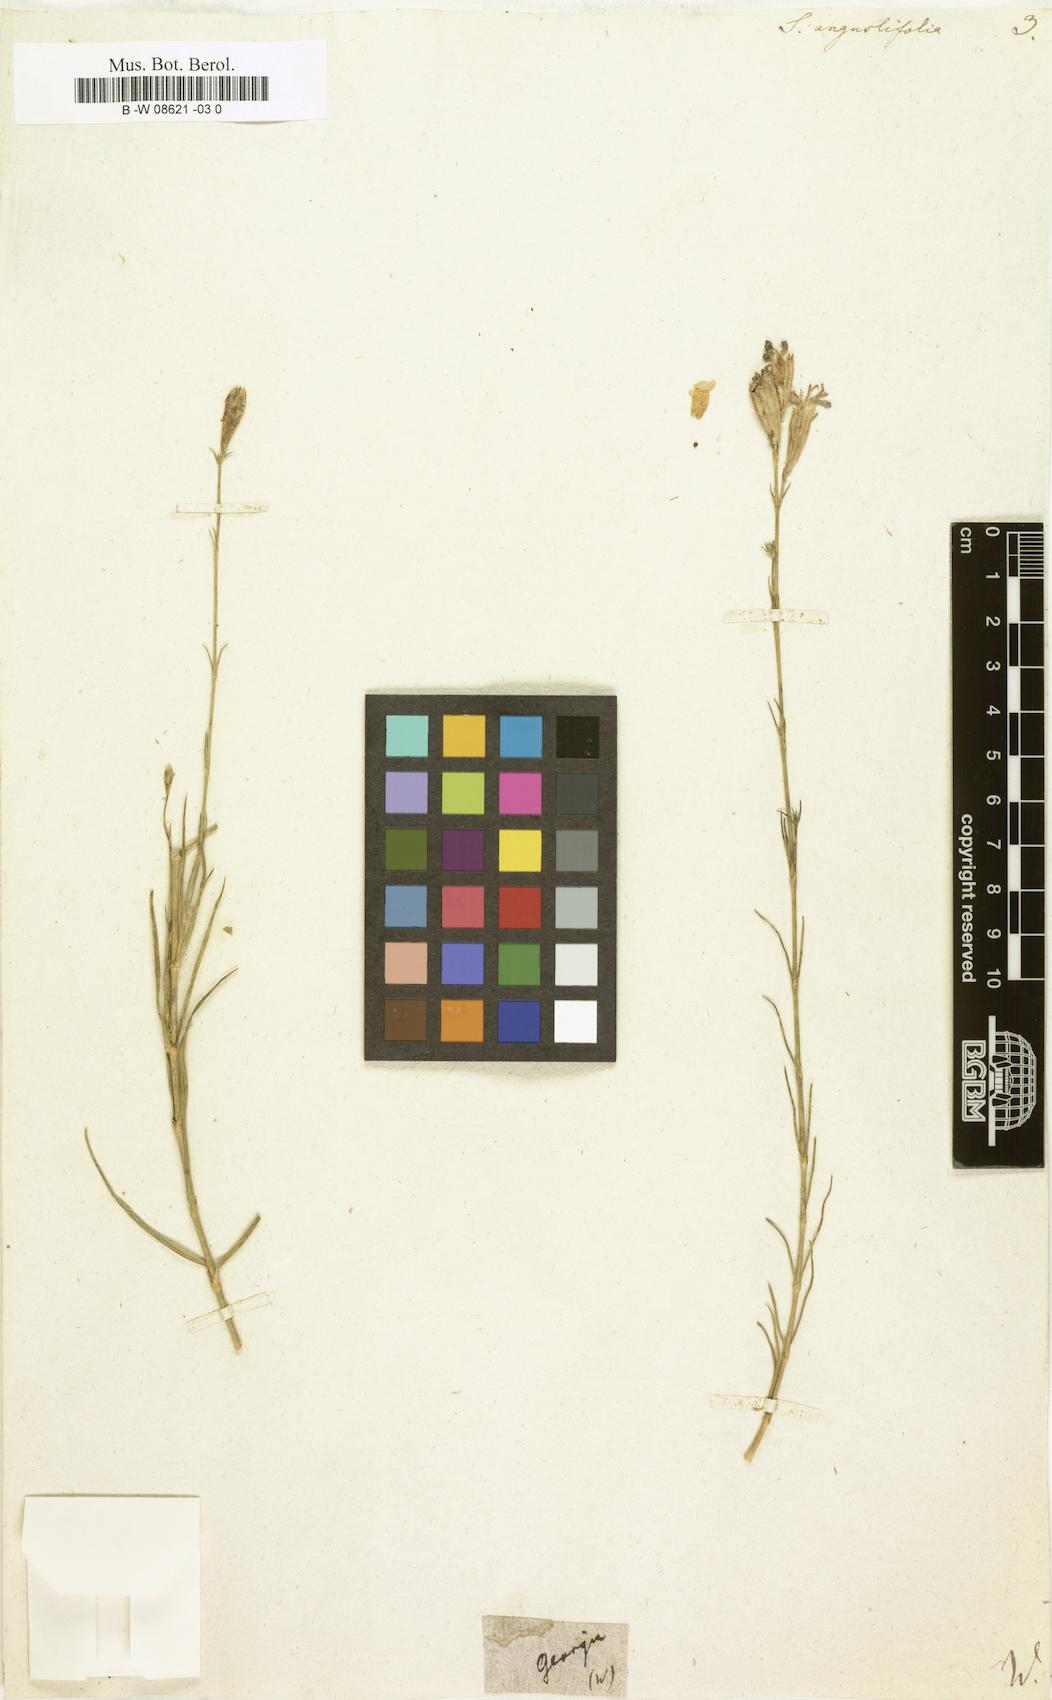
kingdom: Plantae
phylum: Tracheophyta
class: Magnoliopsida
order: Caryophyllales
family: Caryophyllaceae
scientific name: Caryophyllaceae
